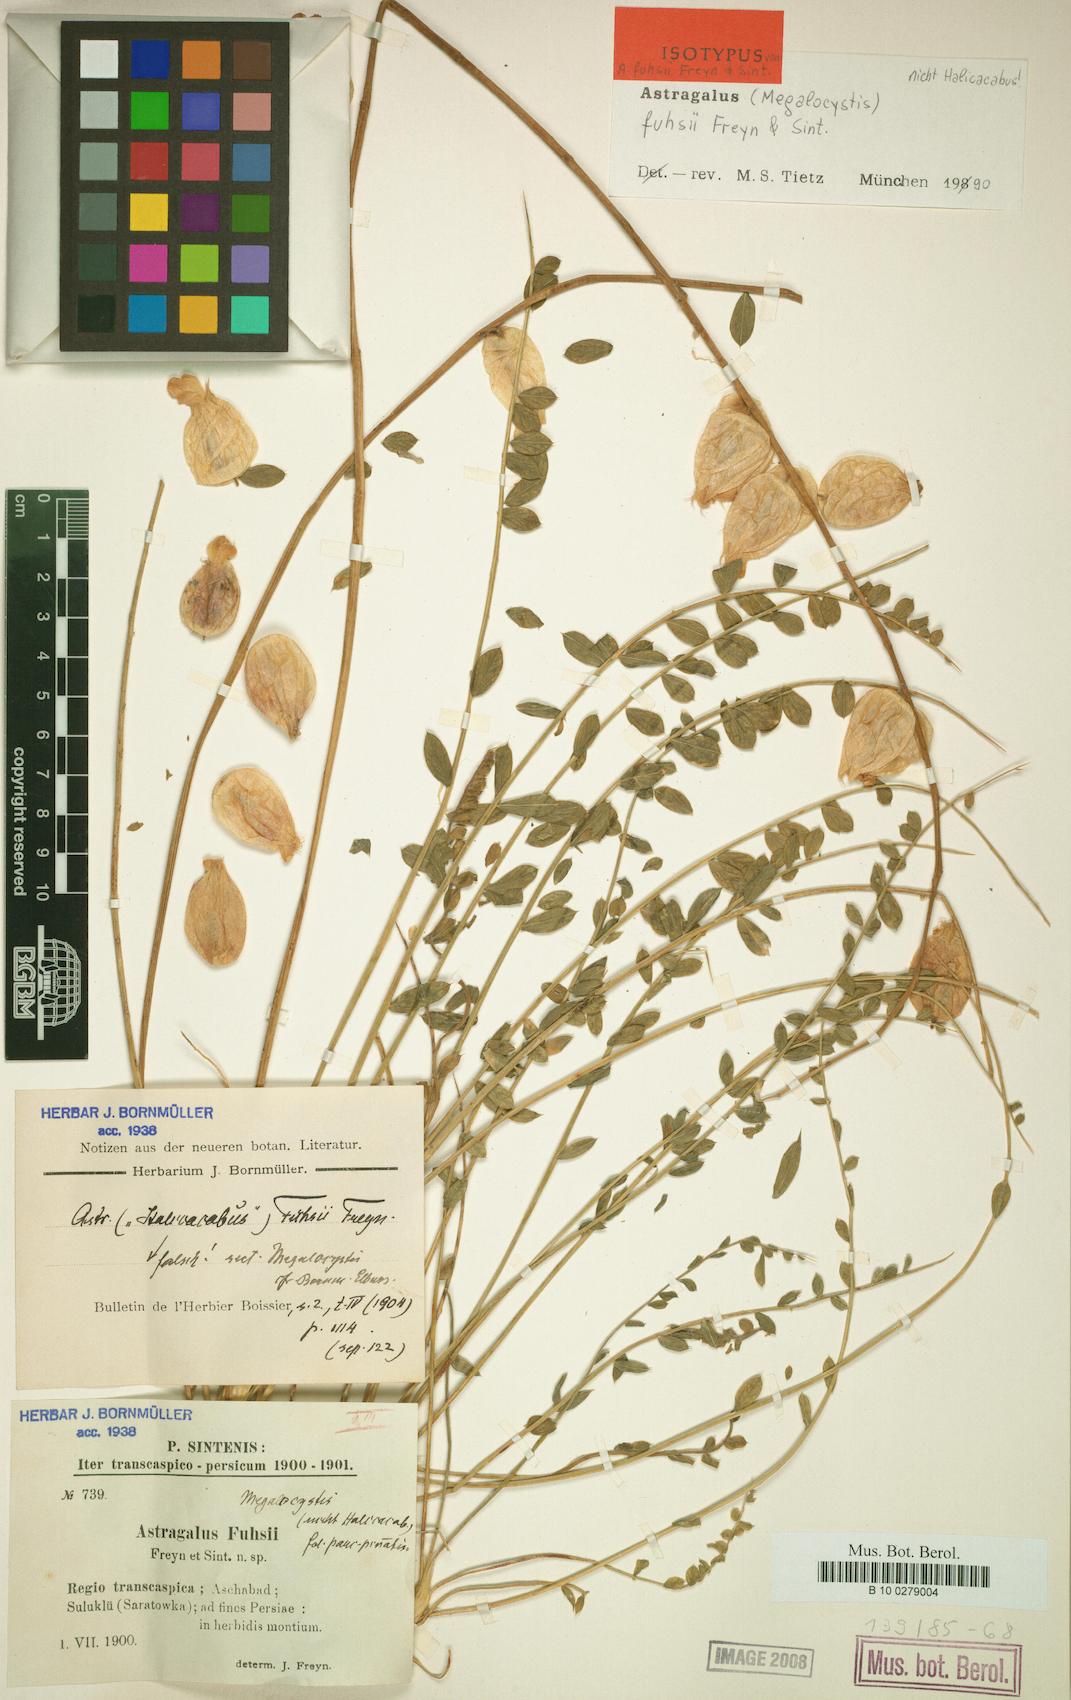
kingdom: Plantae
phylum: Tracheophyta
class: Magnoliopsida
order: Fabales
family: Fabaceae
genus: Astragalus
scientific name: Astragalus fuhsii
